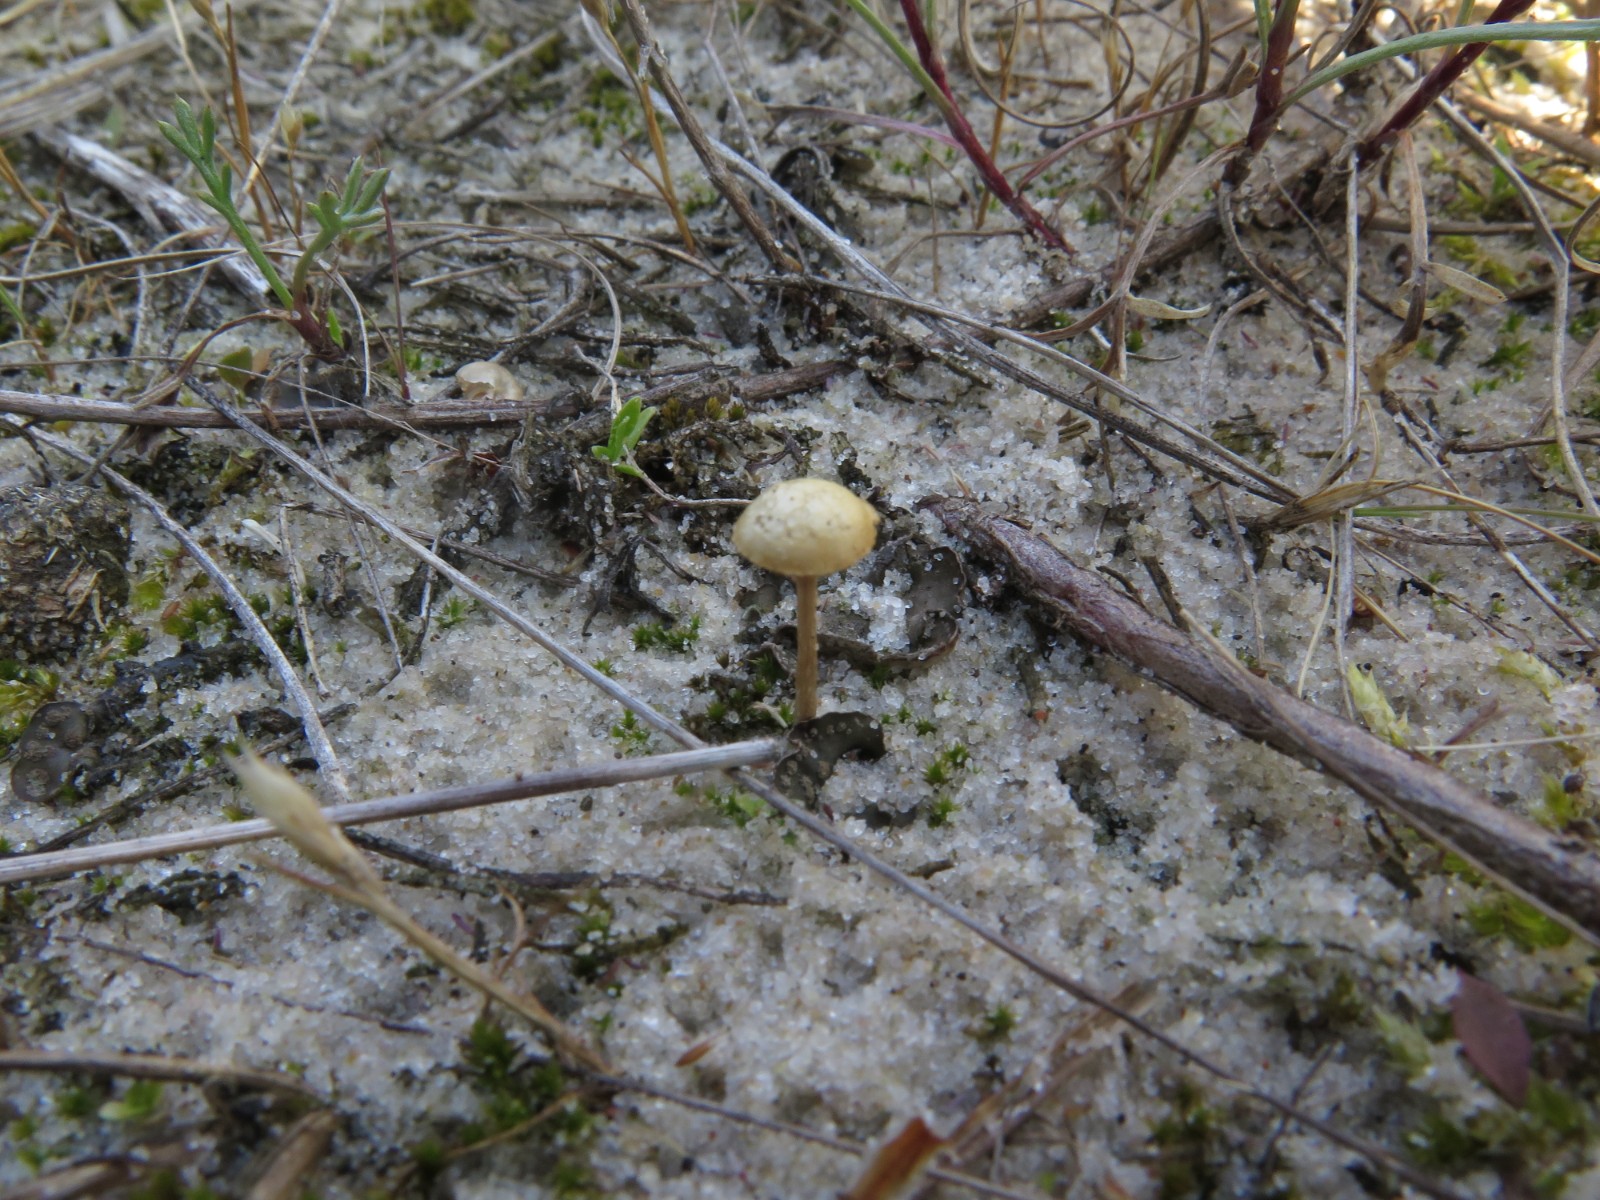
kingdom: Fungi
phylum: Basidiomycota
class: Agaricomycetes
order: Agaricales
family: Strophariaceae
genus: Agrocybe
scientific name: Agrocybe pediades
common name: almindelig agerhat
